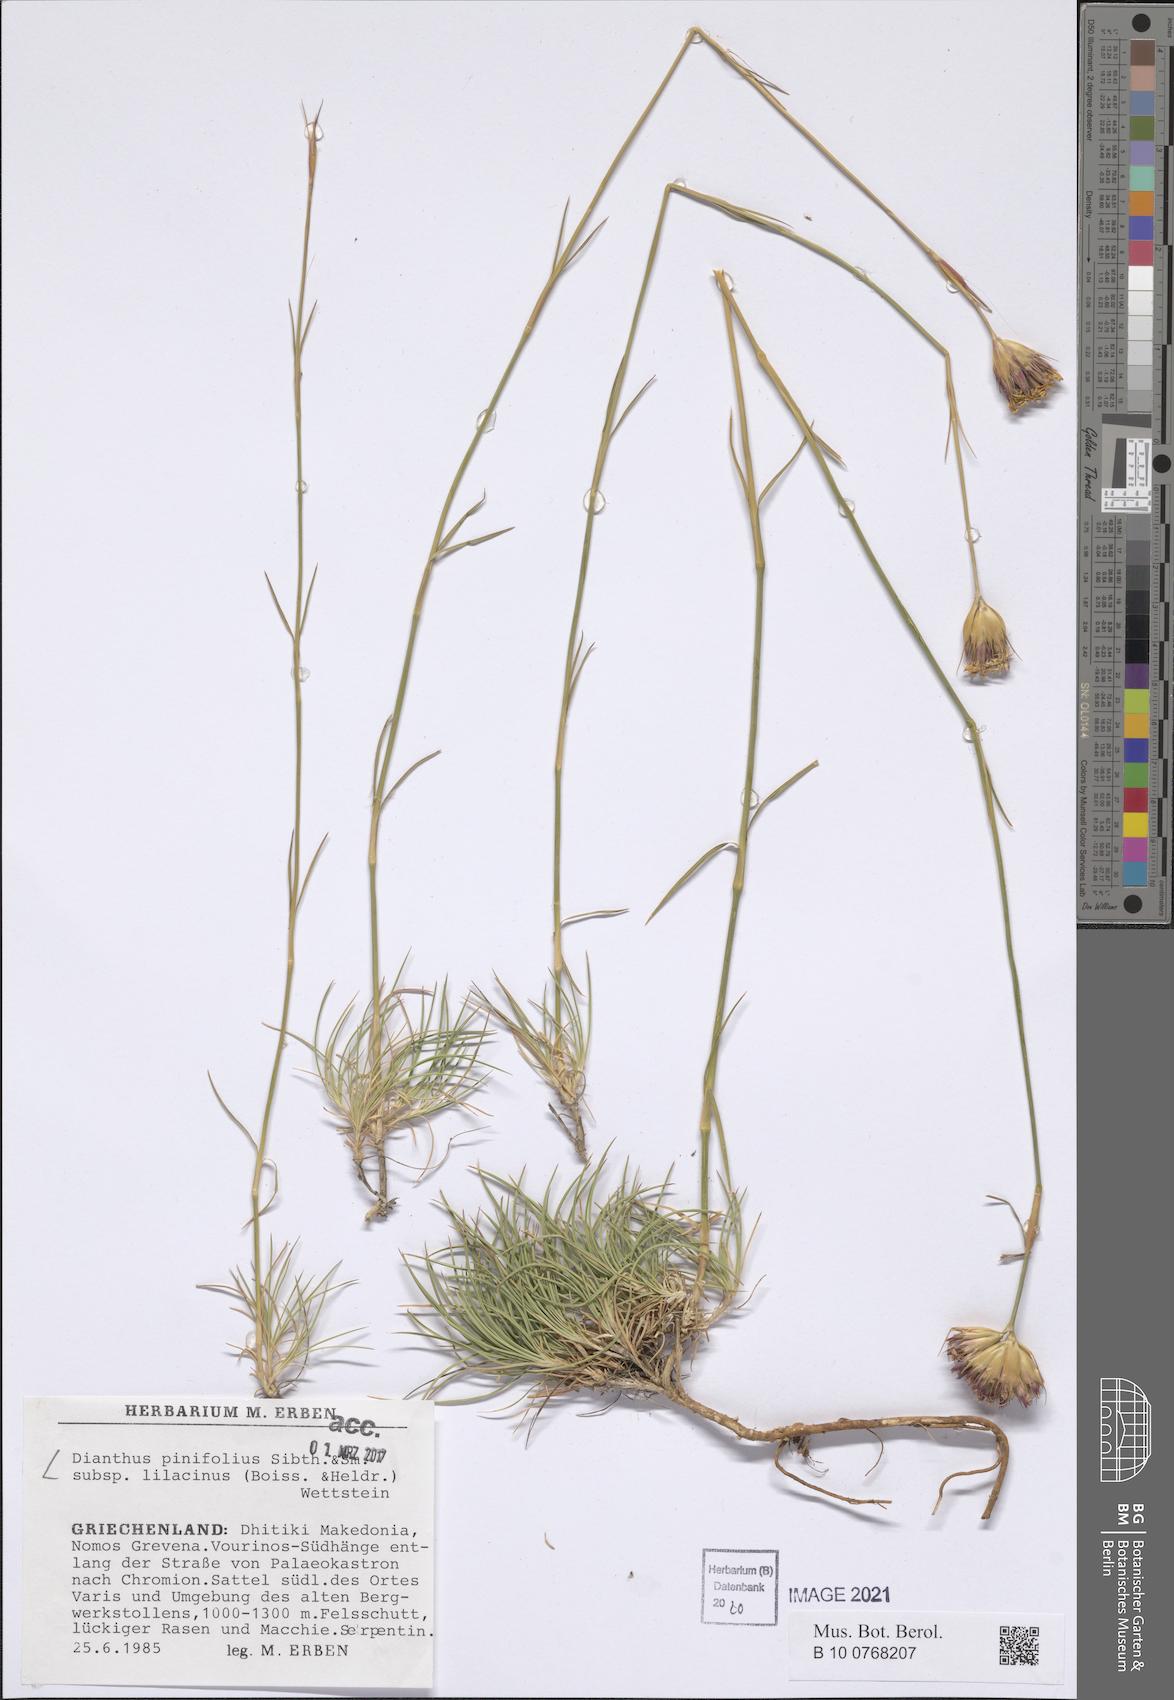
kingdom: Plantae
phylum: Tracheophyta
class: Magnoliopsida
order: Caryophyllales
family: Caryophyllaceae
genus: Dianthus
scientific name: Dianthus pinifolius
